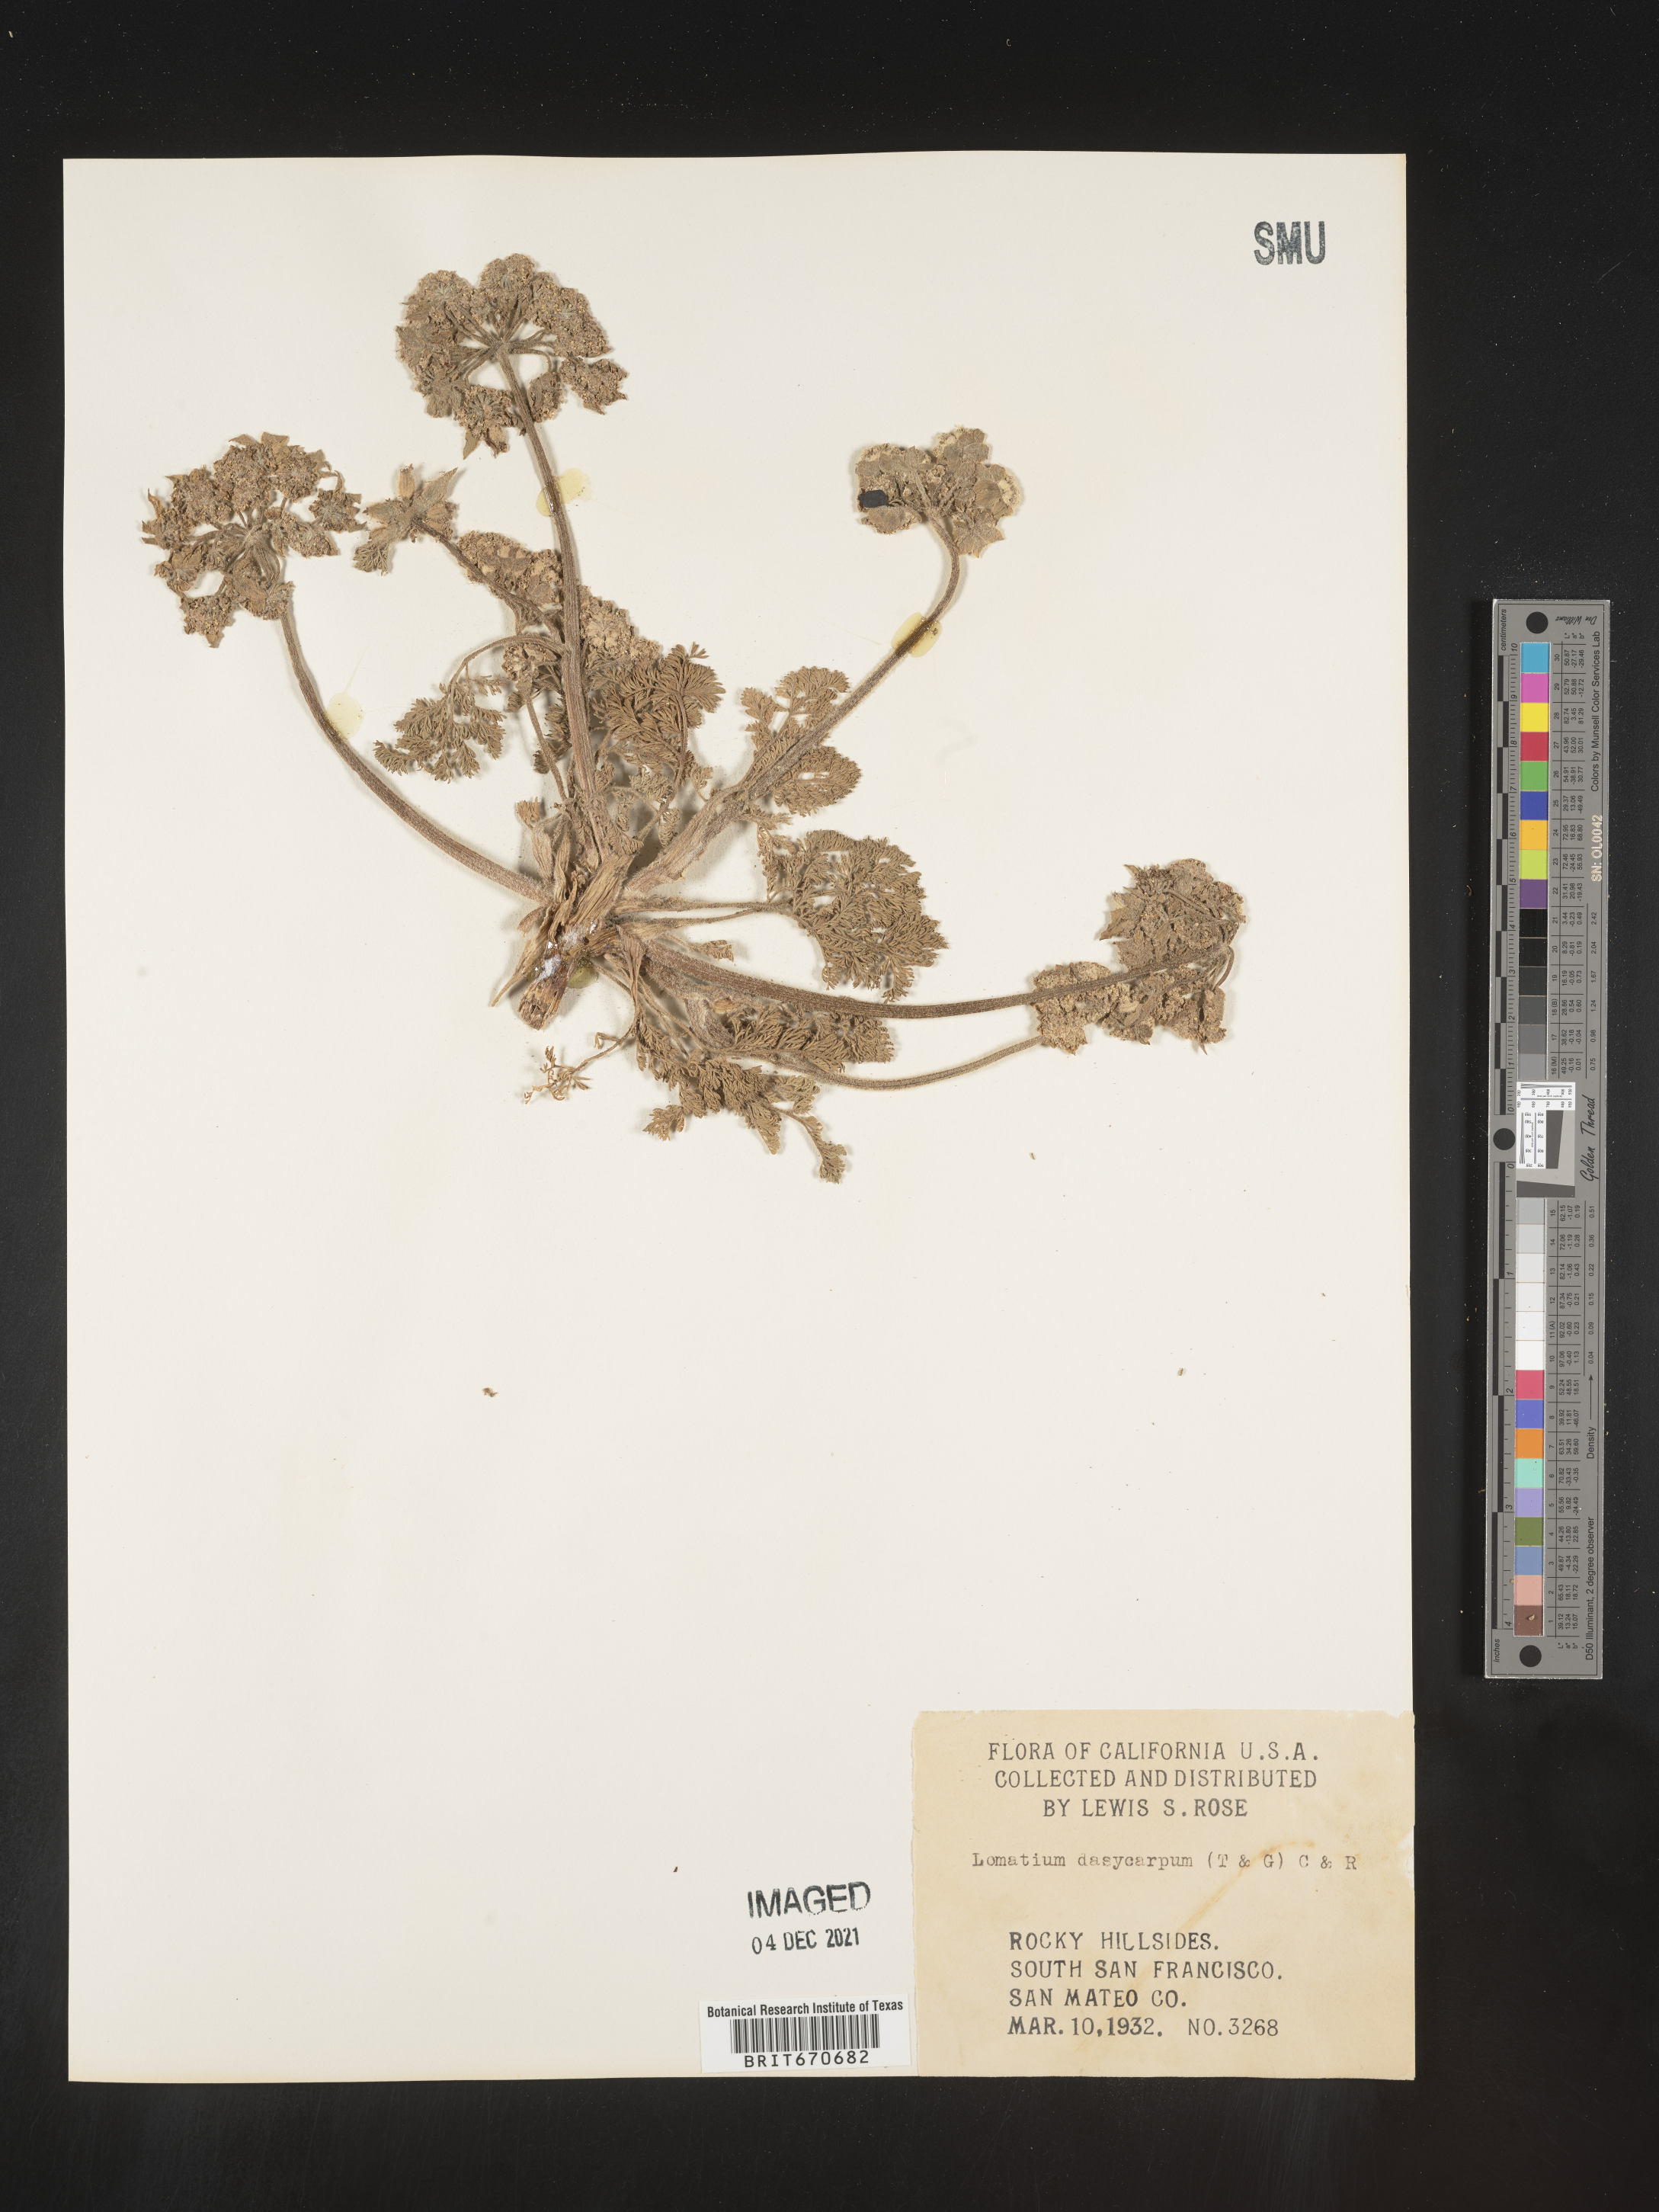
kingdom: Plantae
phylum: Tracheophyta
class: Magnoliopsida
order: Apiales
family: Apiaceae
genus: Lomatium
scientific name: Lomatium dasycarpum
